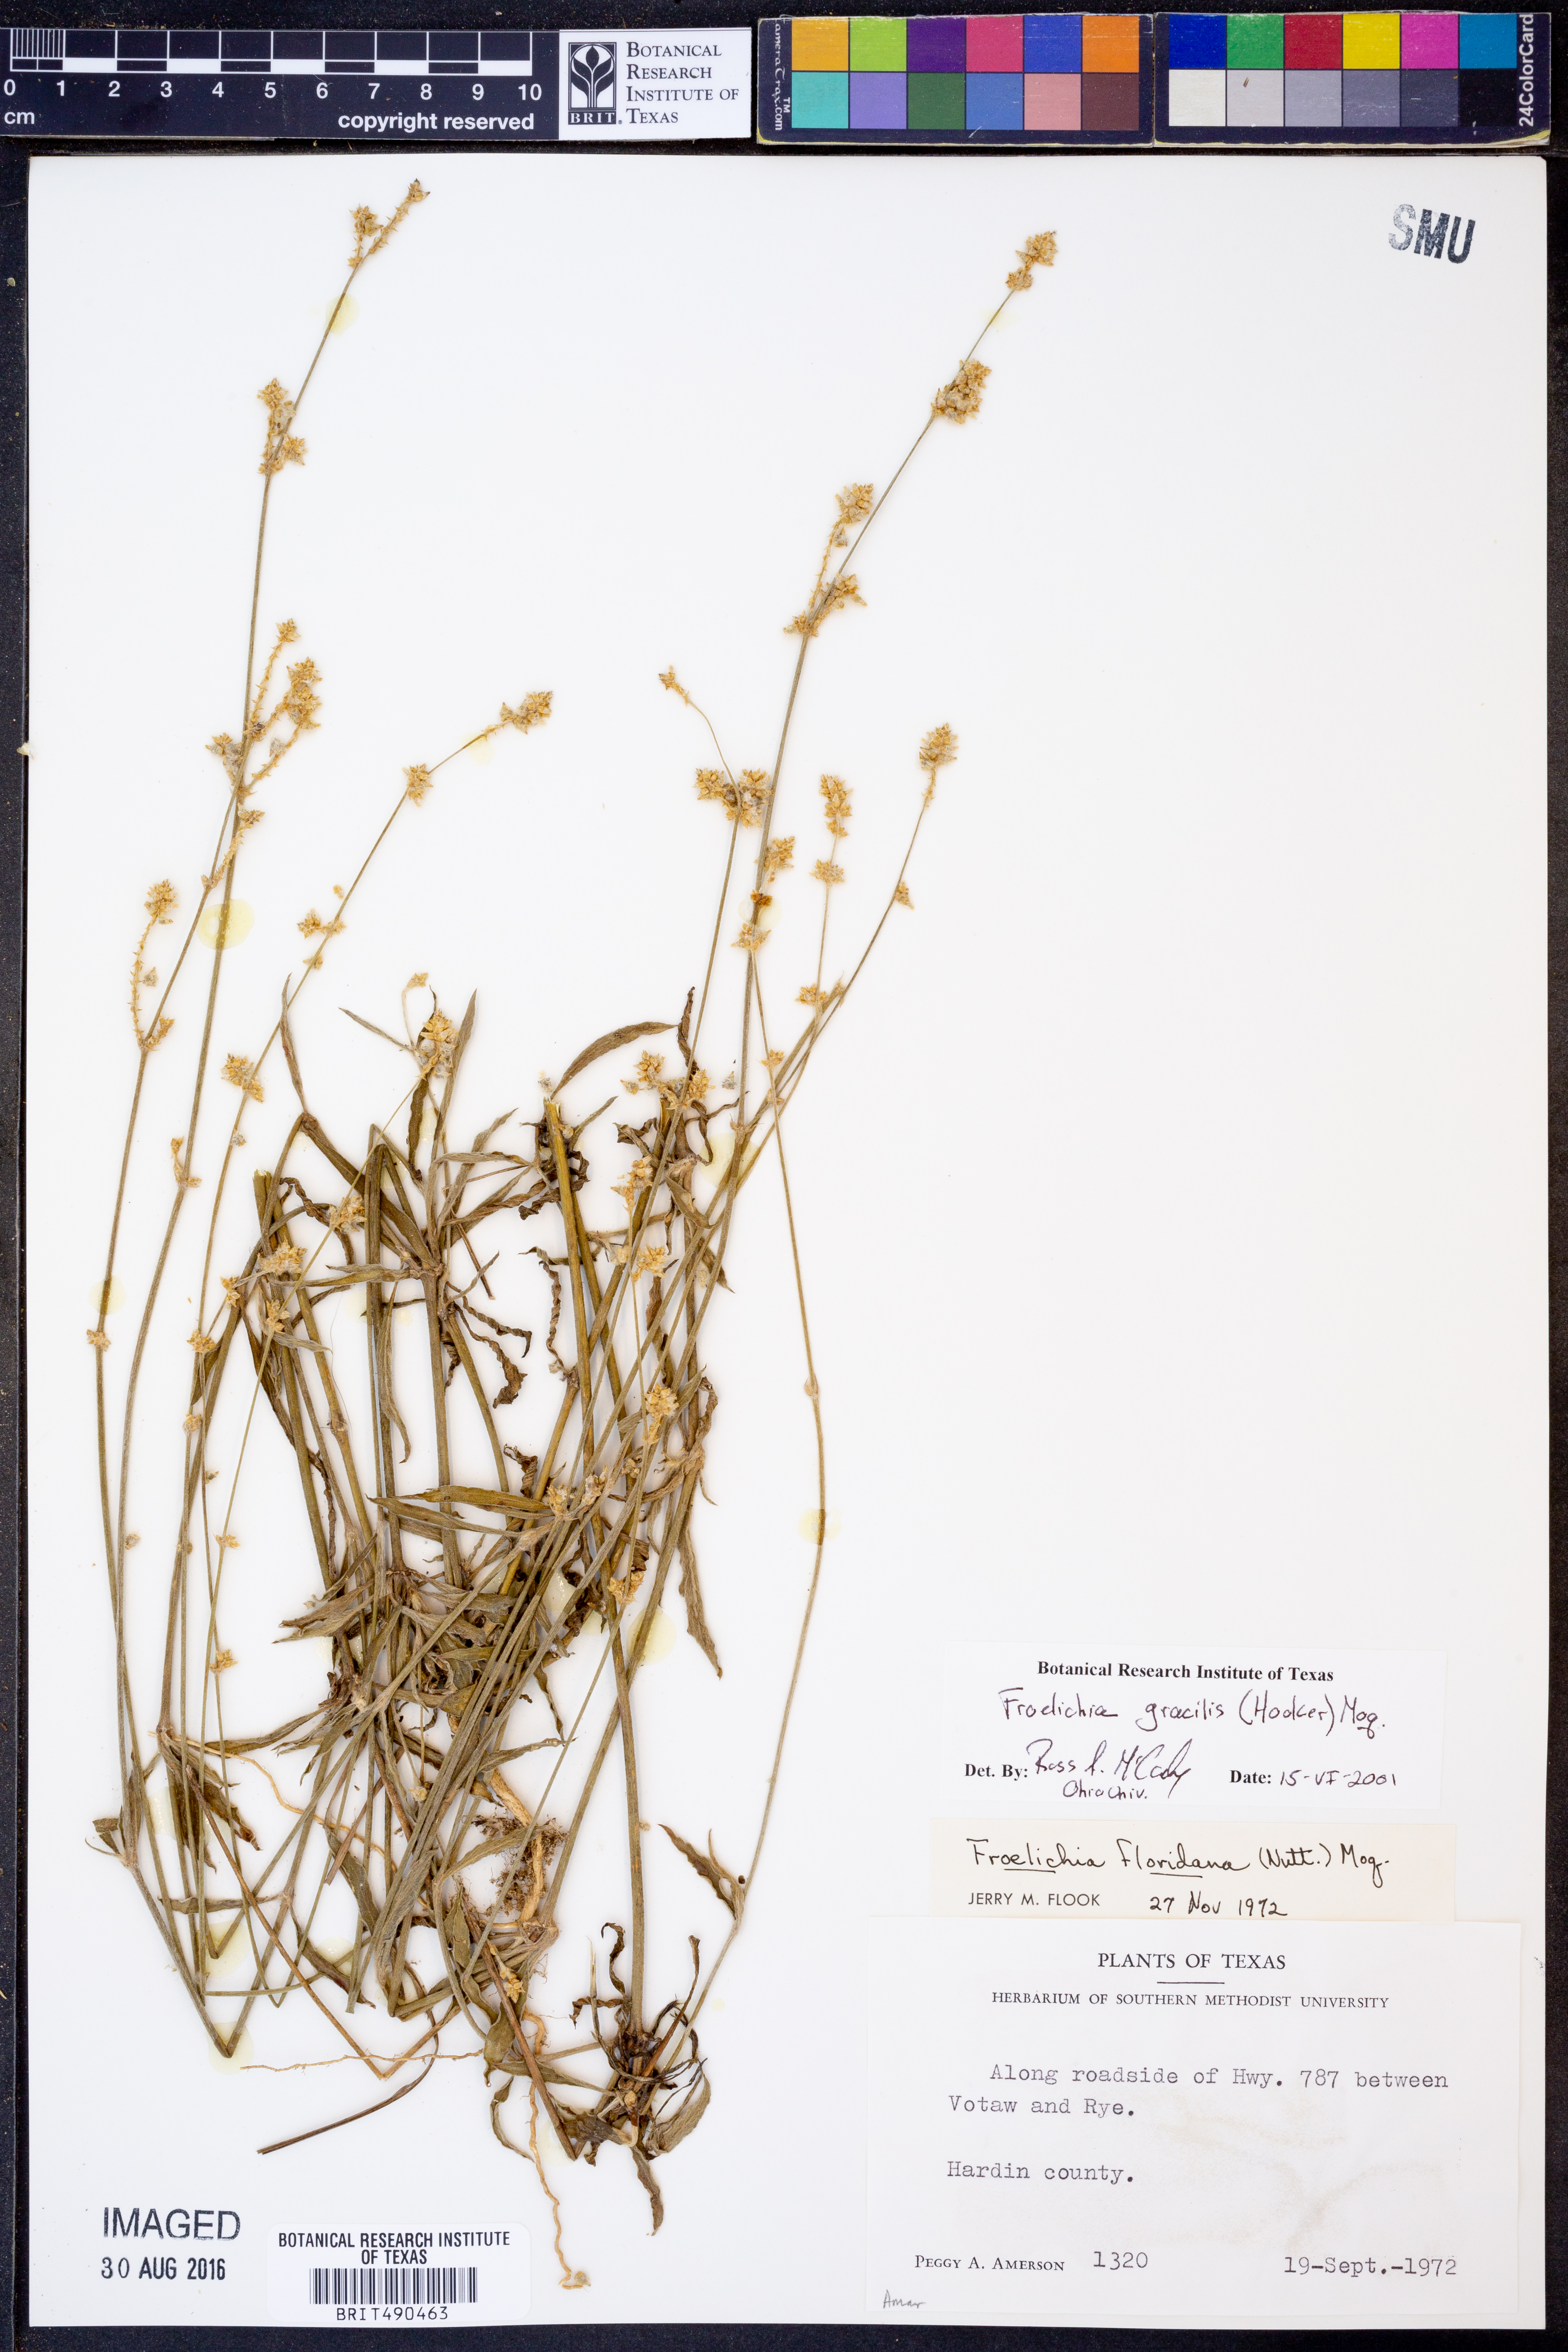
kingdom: Plantae
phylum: Tracheophyta
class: Magnoliopsida
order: Caryophyllales
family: Amaranthaceae
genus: Froelichia
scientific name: Froelichia gracilis
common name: Slender cottonweed
